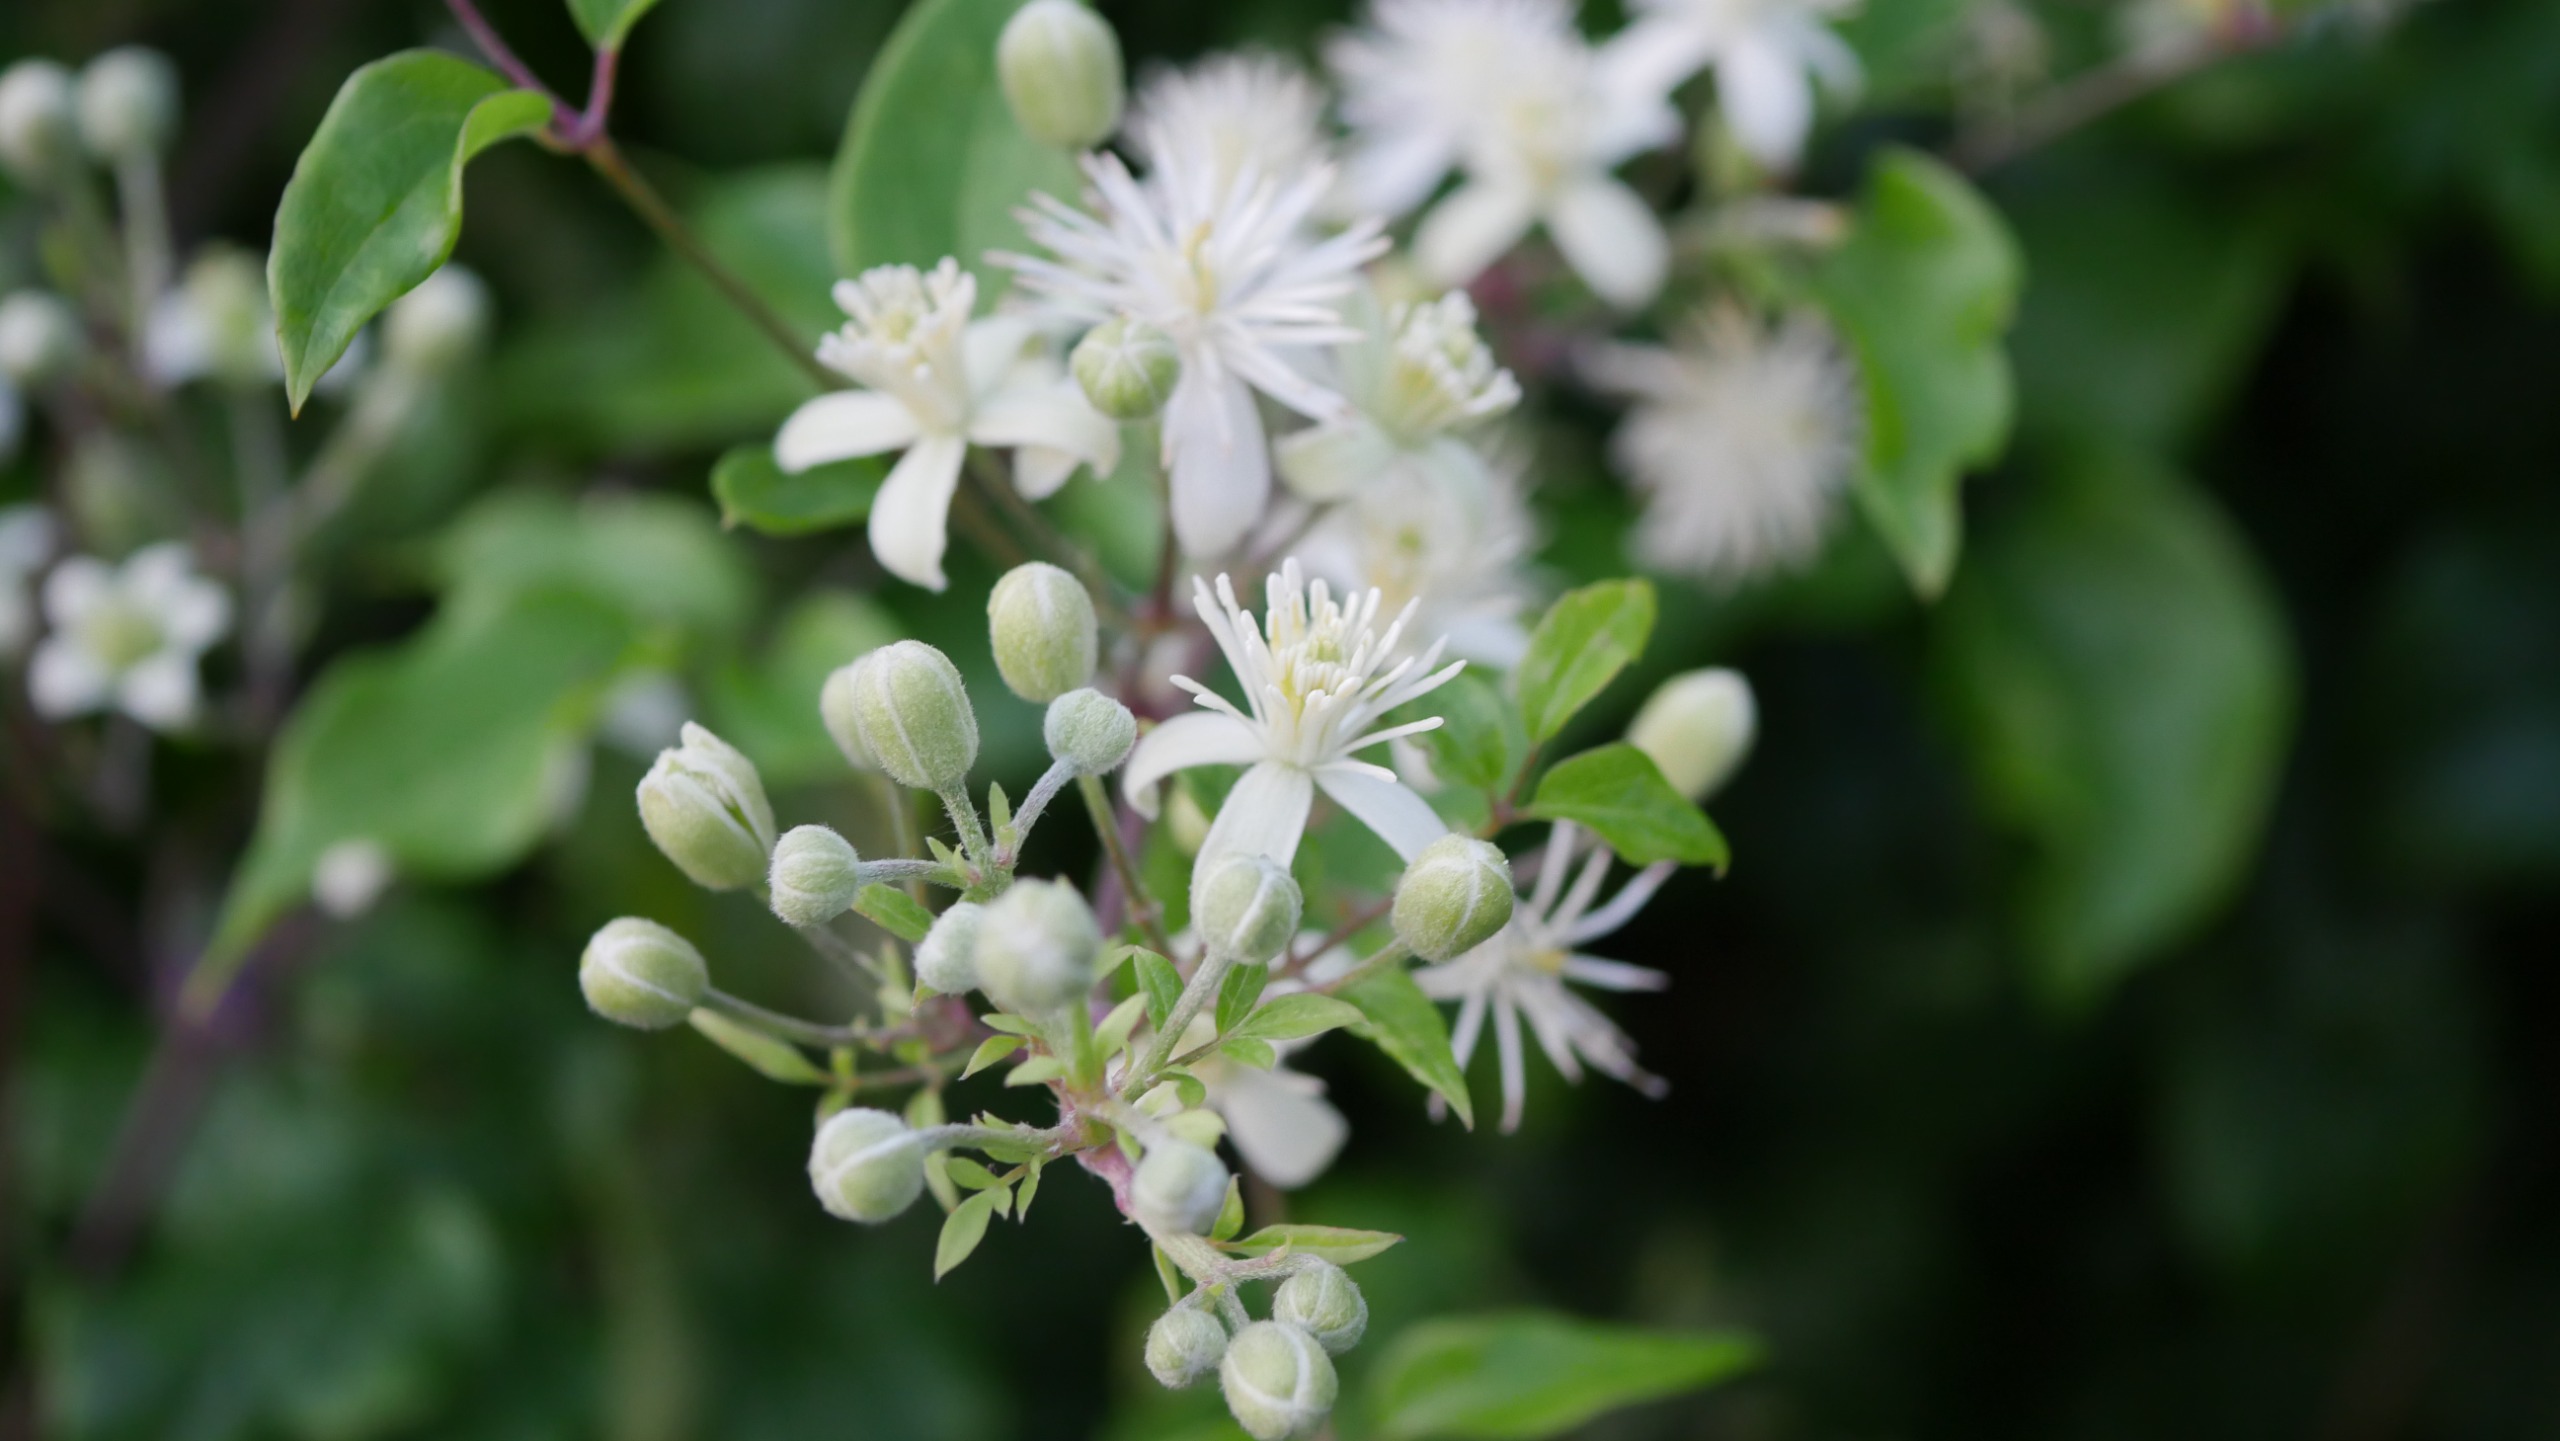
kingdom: Plantae
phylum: Tracheophyta
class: Magnoliopsida
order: Ranunculales
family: Ranunculaceae
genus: Clematis
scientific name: Clematis vitalba
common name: Skovranke
